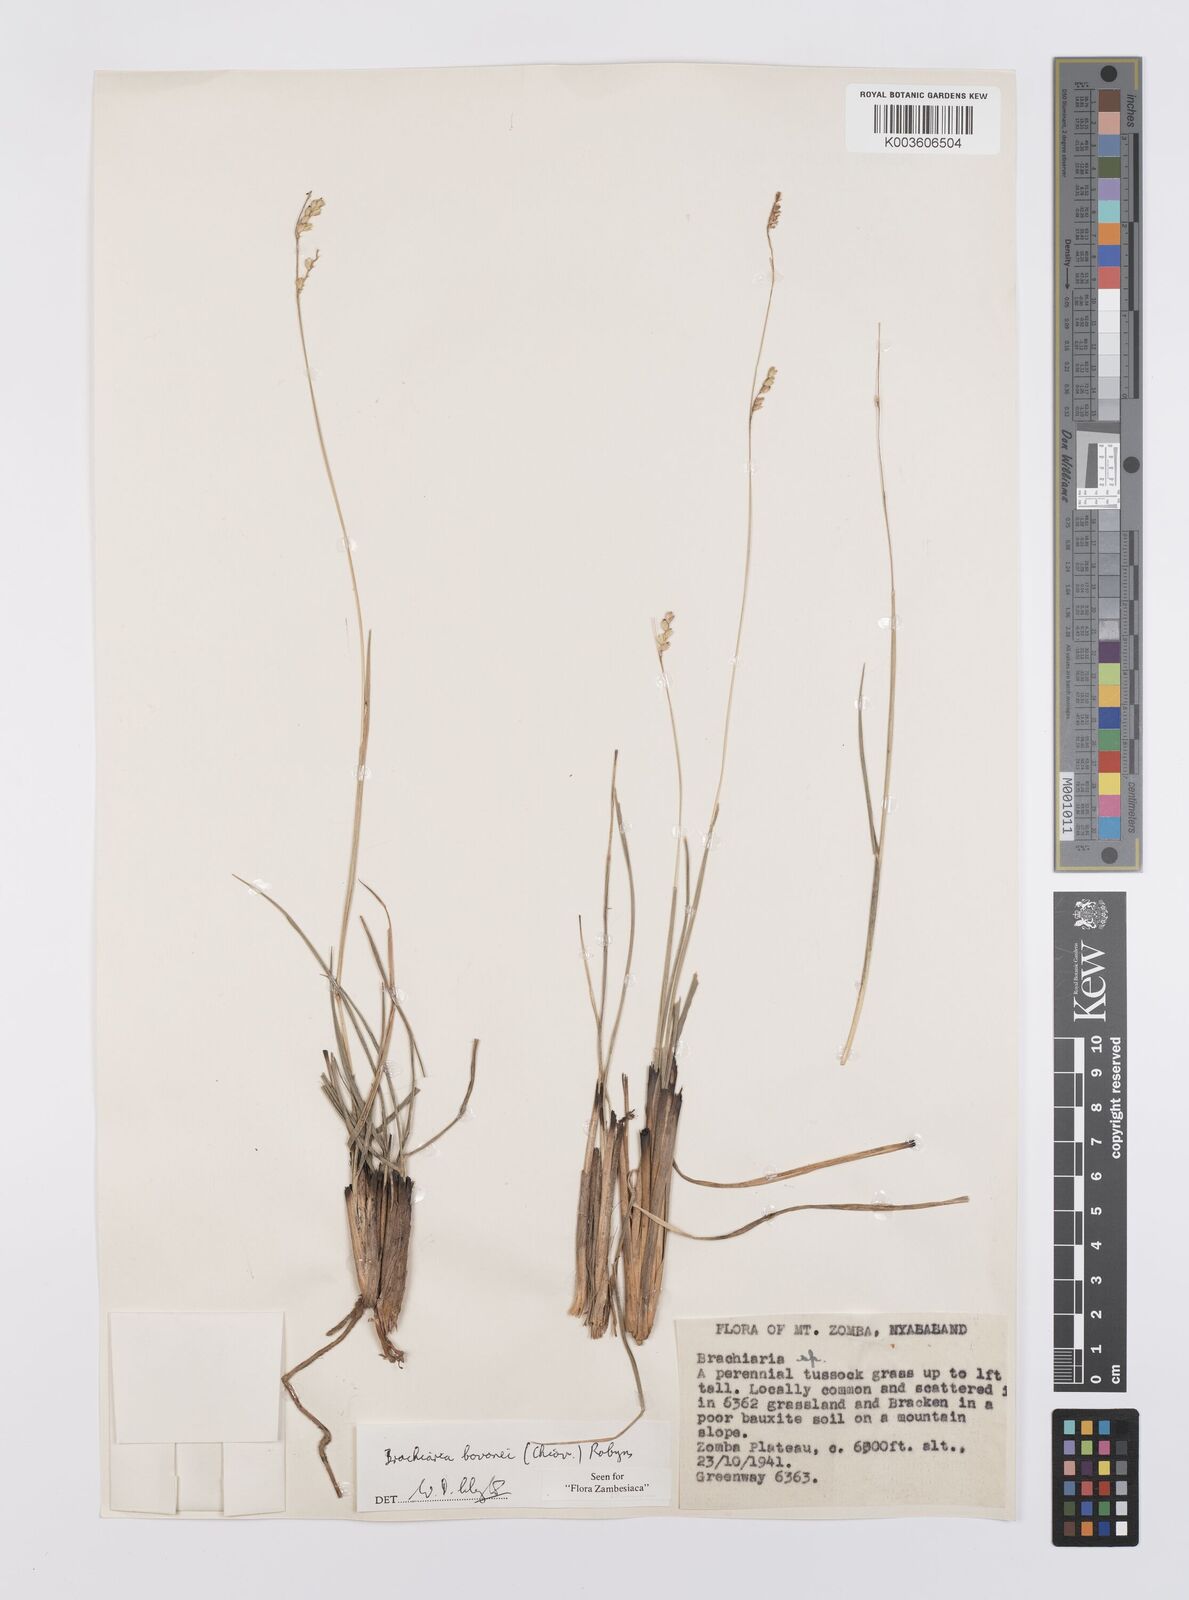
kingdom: Plantae
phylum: Tracheophyta
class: Liliopsida
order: Poales
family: Poaceae
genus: Urochloa
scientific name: Urochloa bovonei
